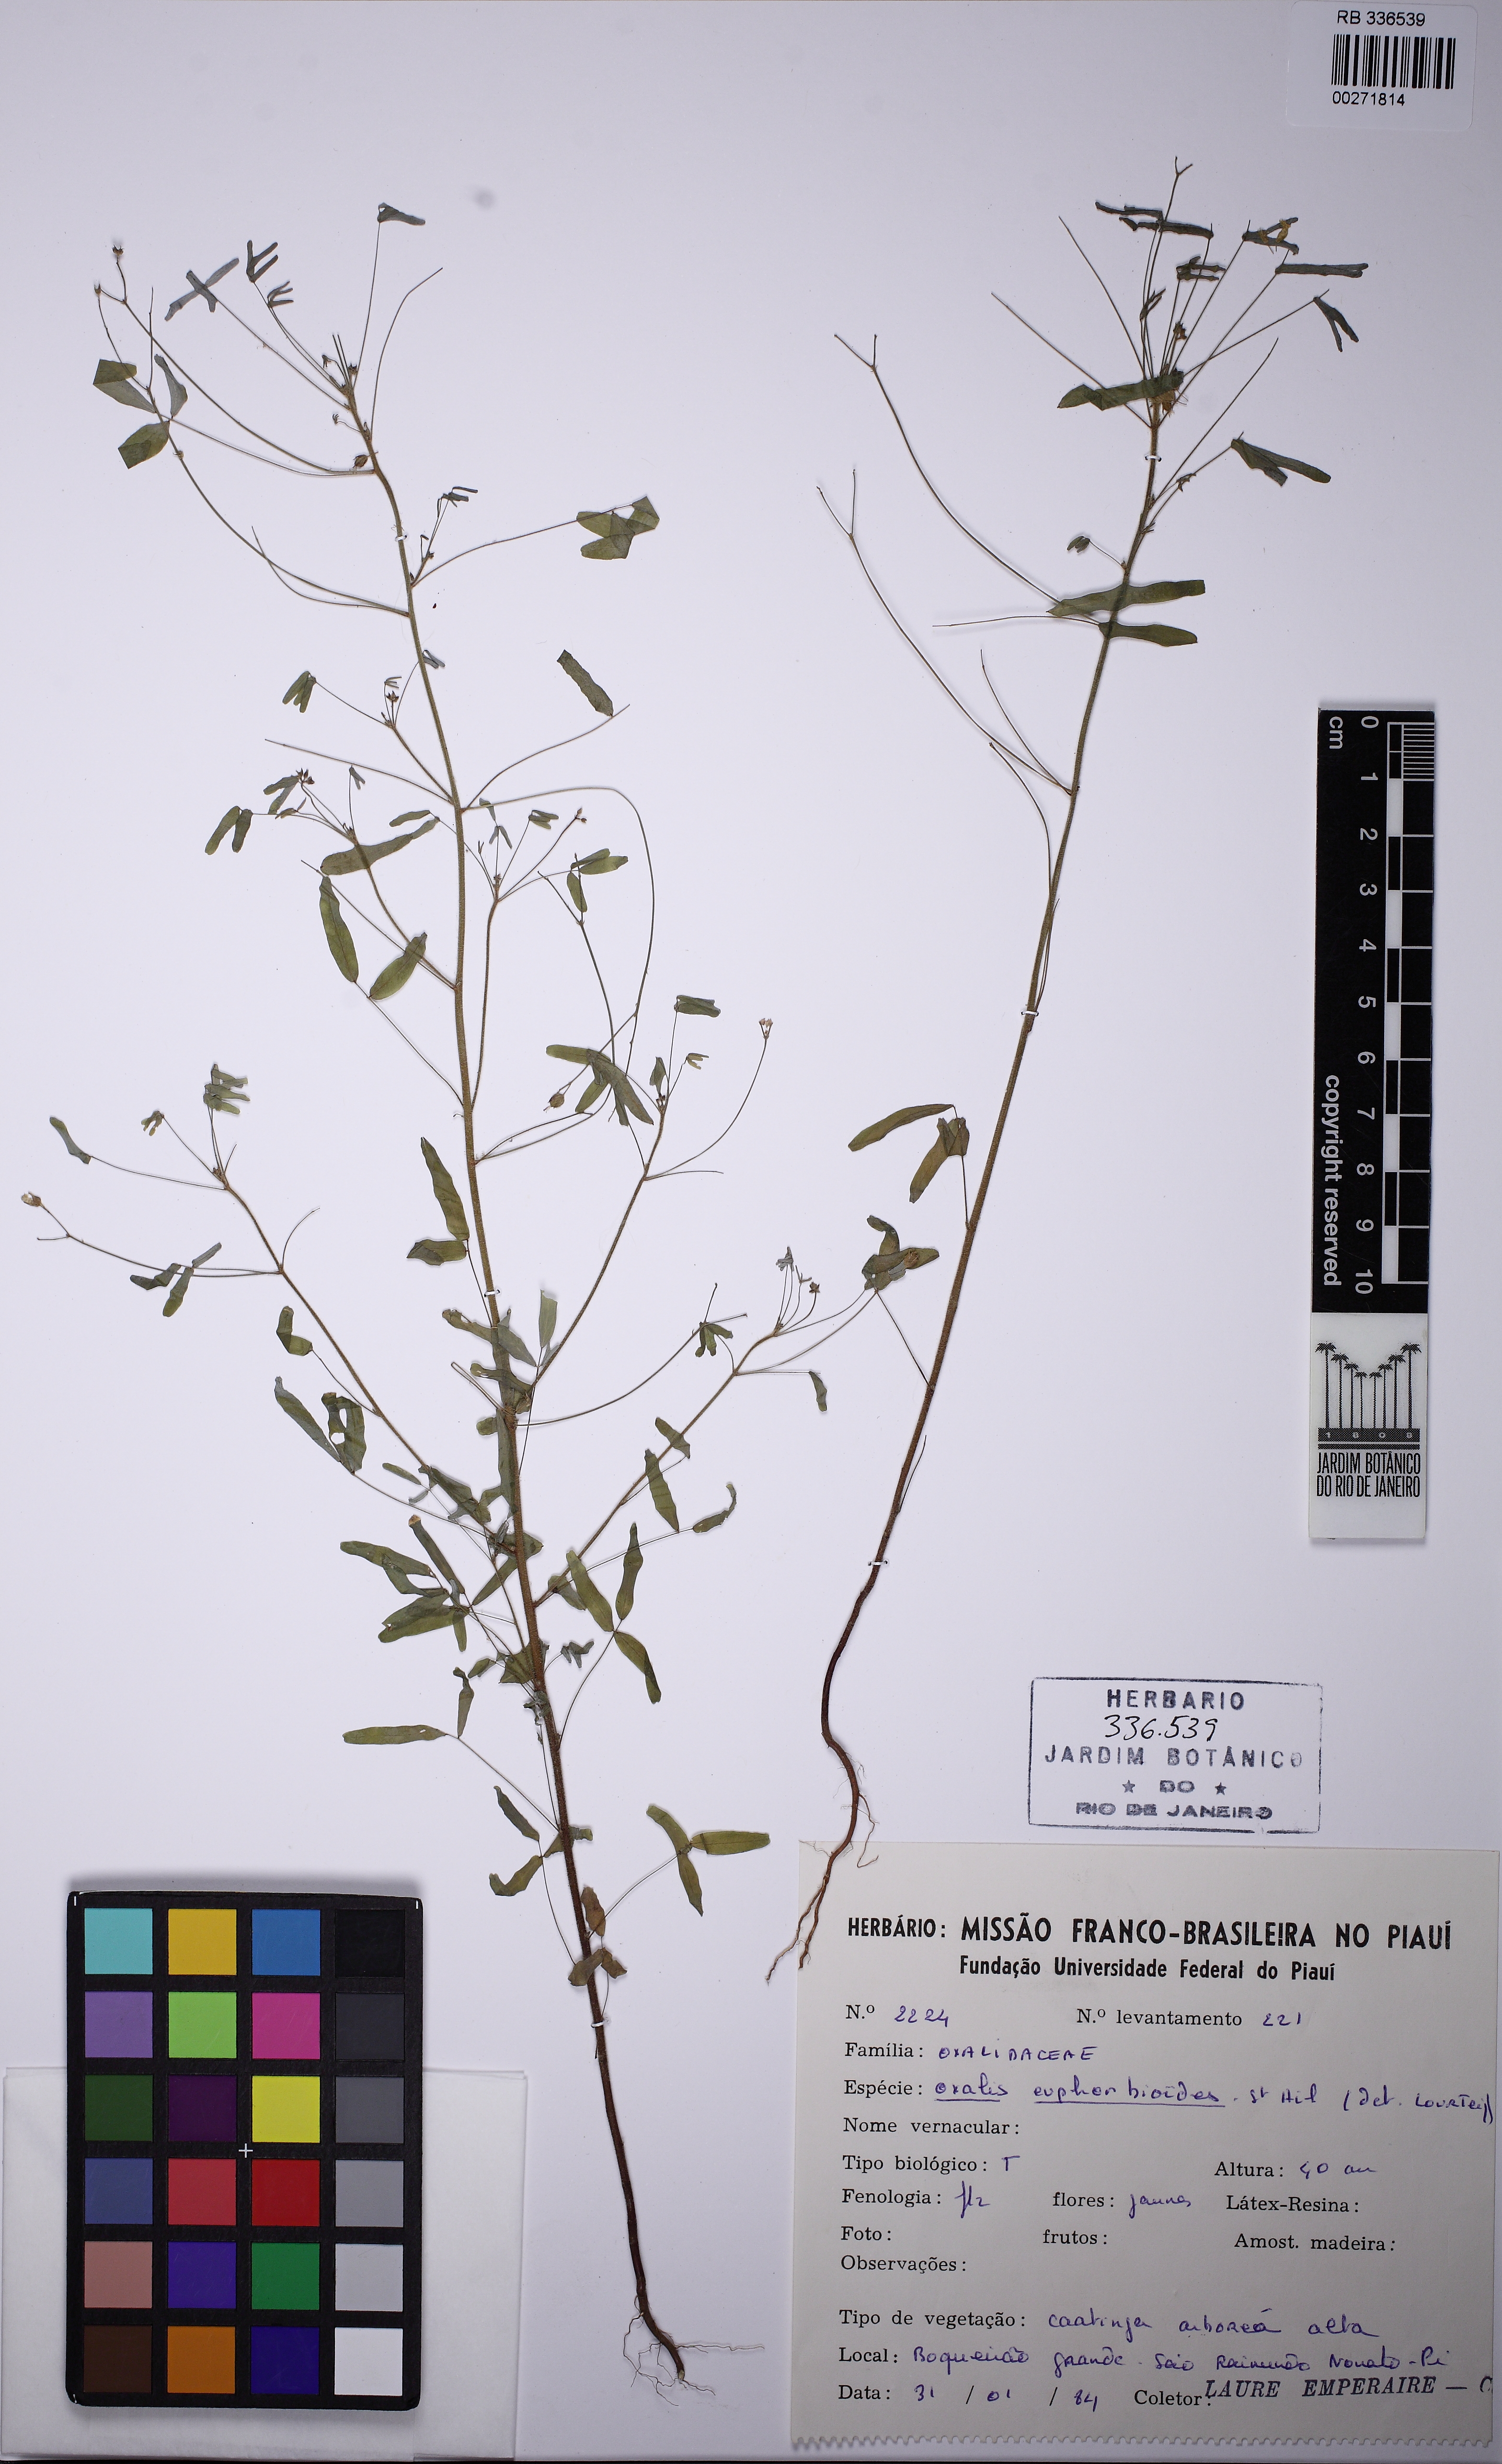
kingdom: Plantae
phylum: Tracheophyta
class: Magnoliopsida
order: Oxalidales
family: Oxalidaceae
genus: Oxalis
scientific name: Oxalis divaricata
